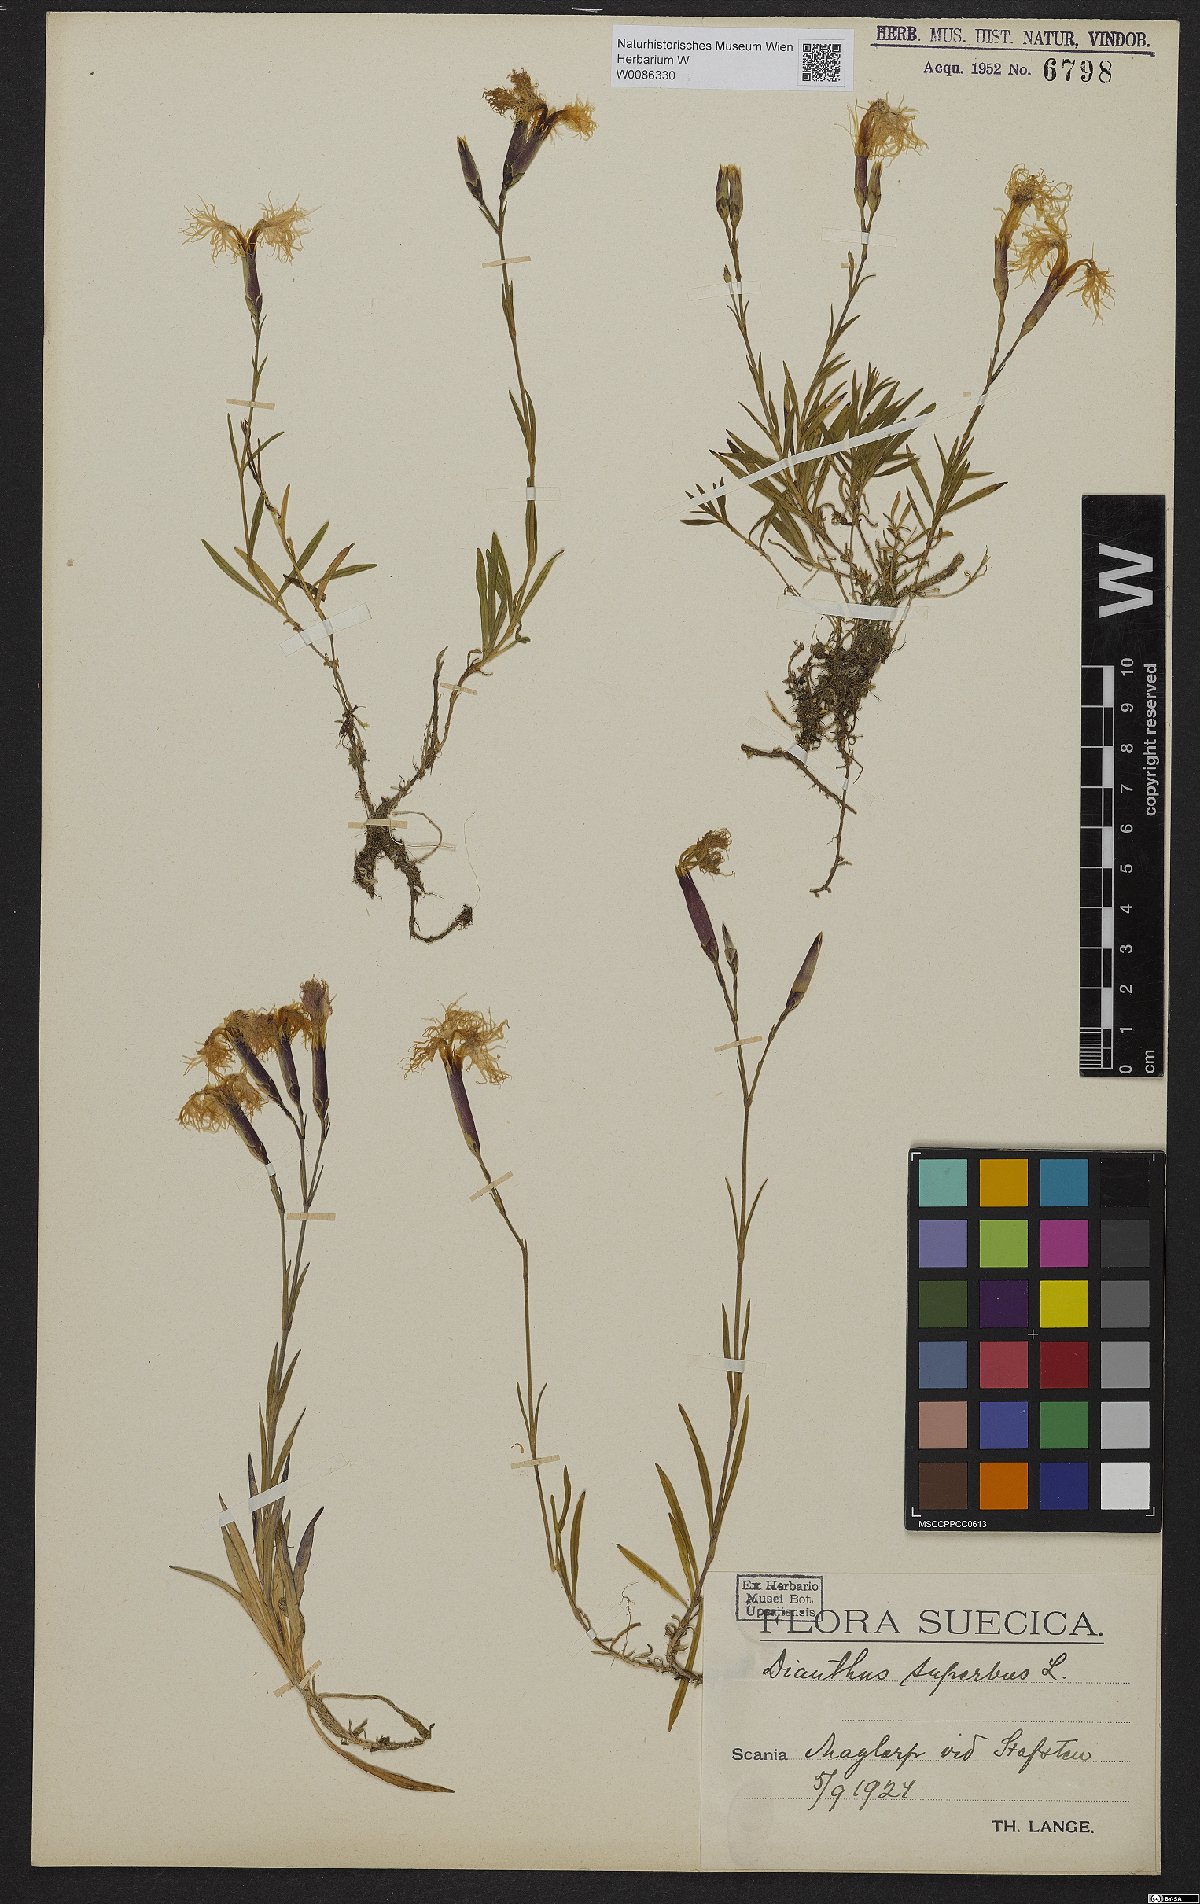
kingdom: Plantae
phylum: Tracheophyta
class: Magnoliopsida
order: Caryophyllales
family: Caryophyllaceae
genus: Dianthus
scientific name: Dianthus superbus
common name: Fringed pink
